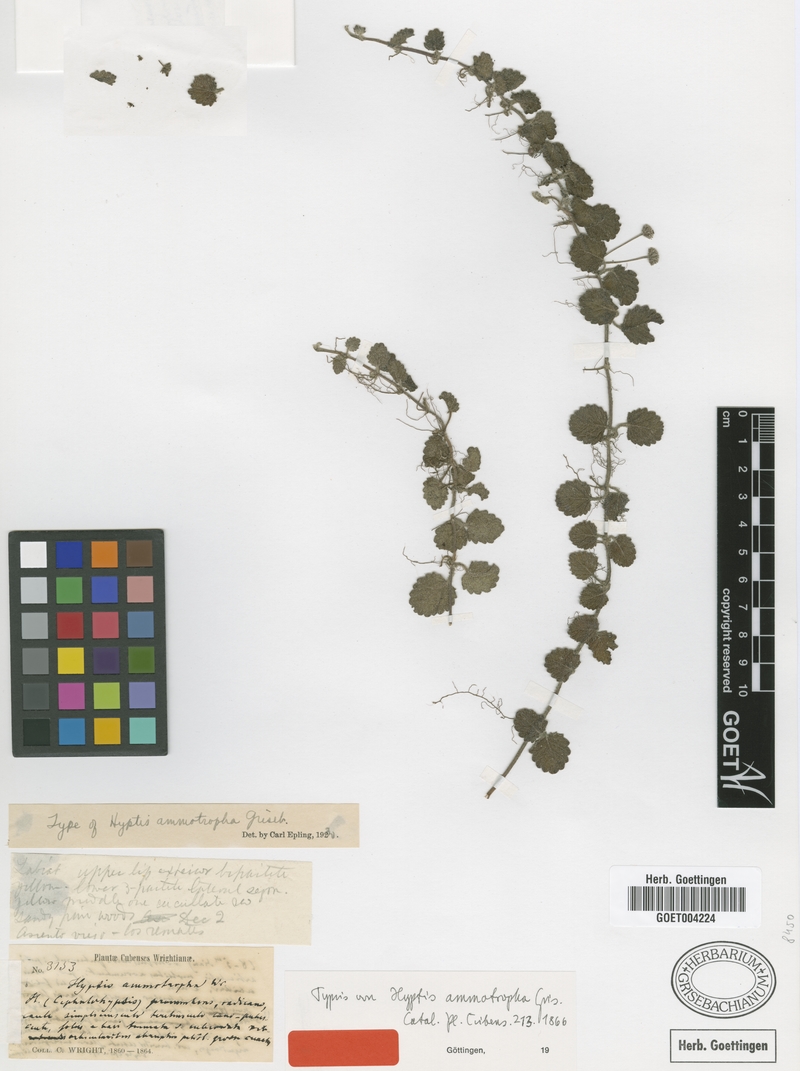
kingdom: Plantae
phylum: Tracheophyta
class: Magnoliopsida
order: Lamiales
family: Lamiaceae
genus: Hyptis
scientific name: Hyptis ammotropha
